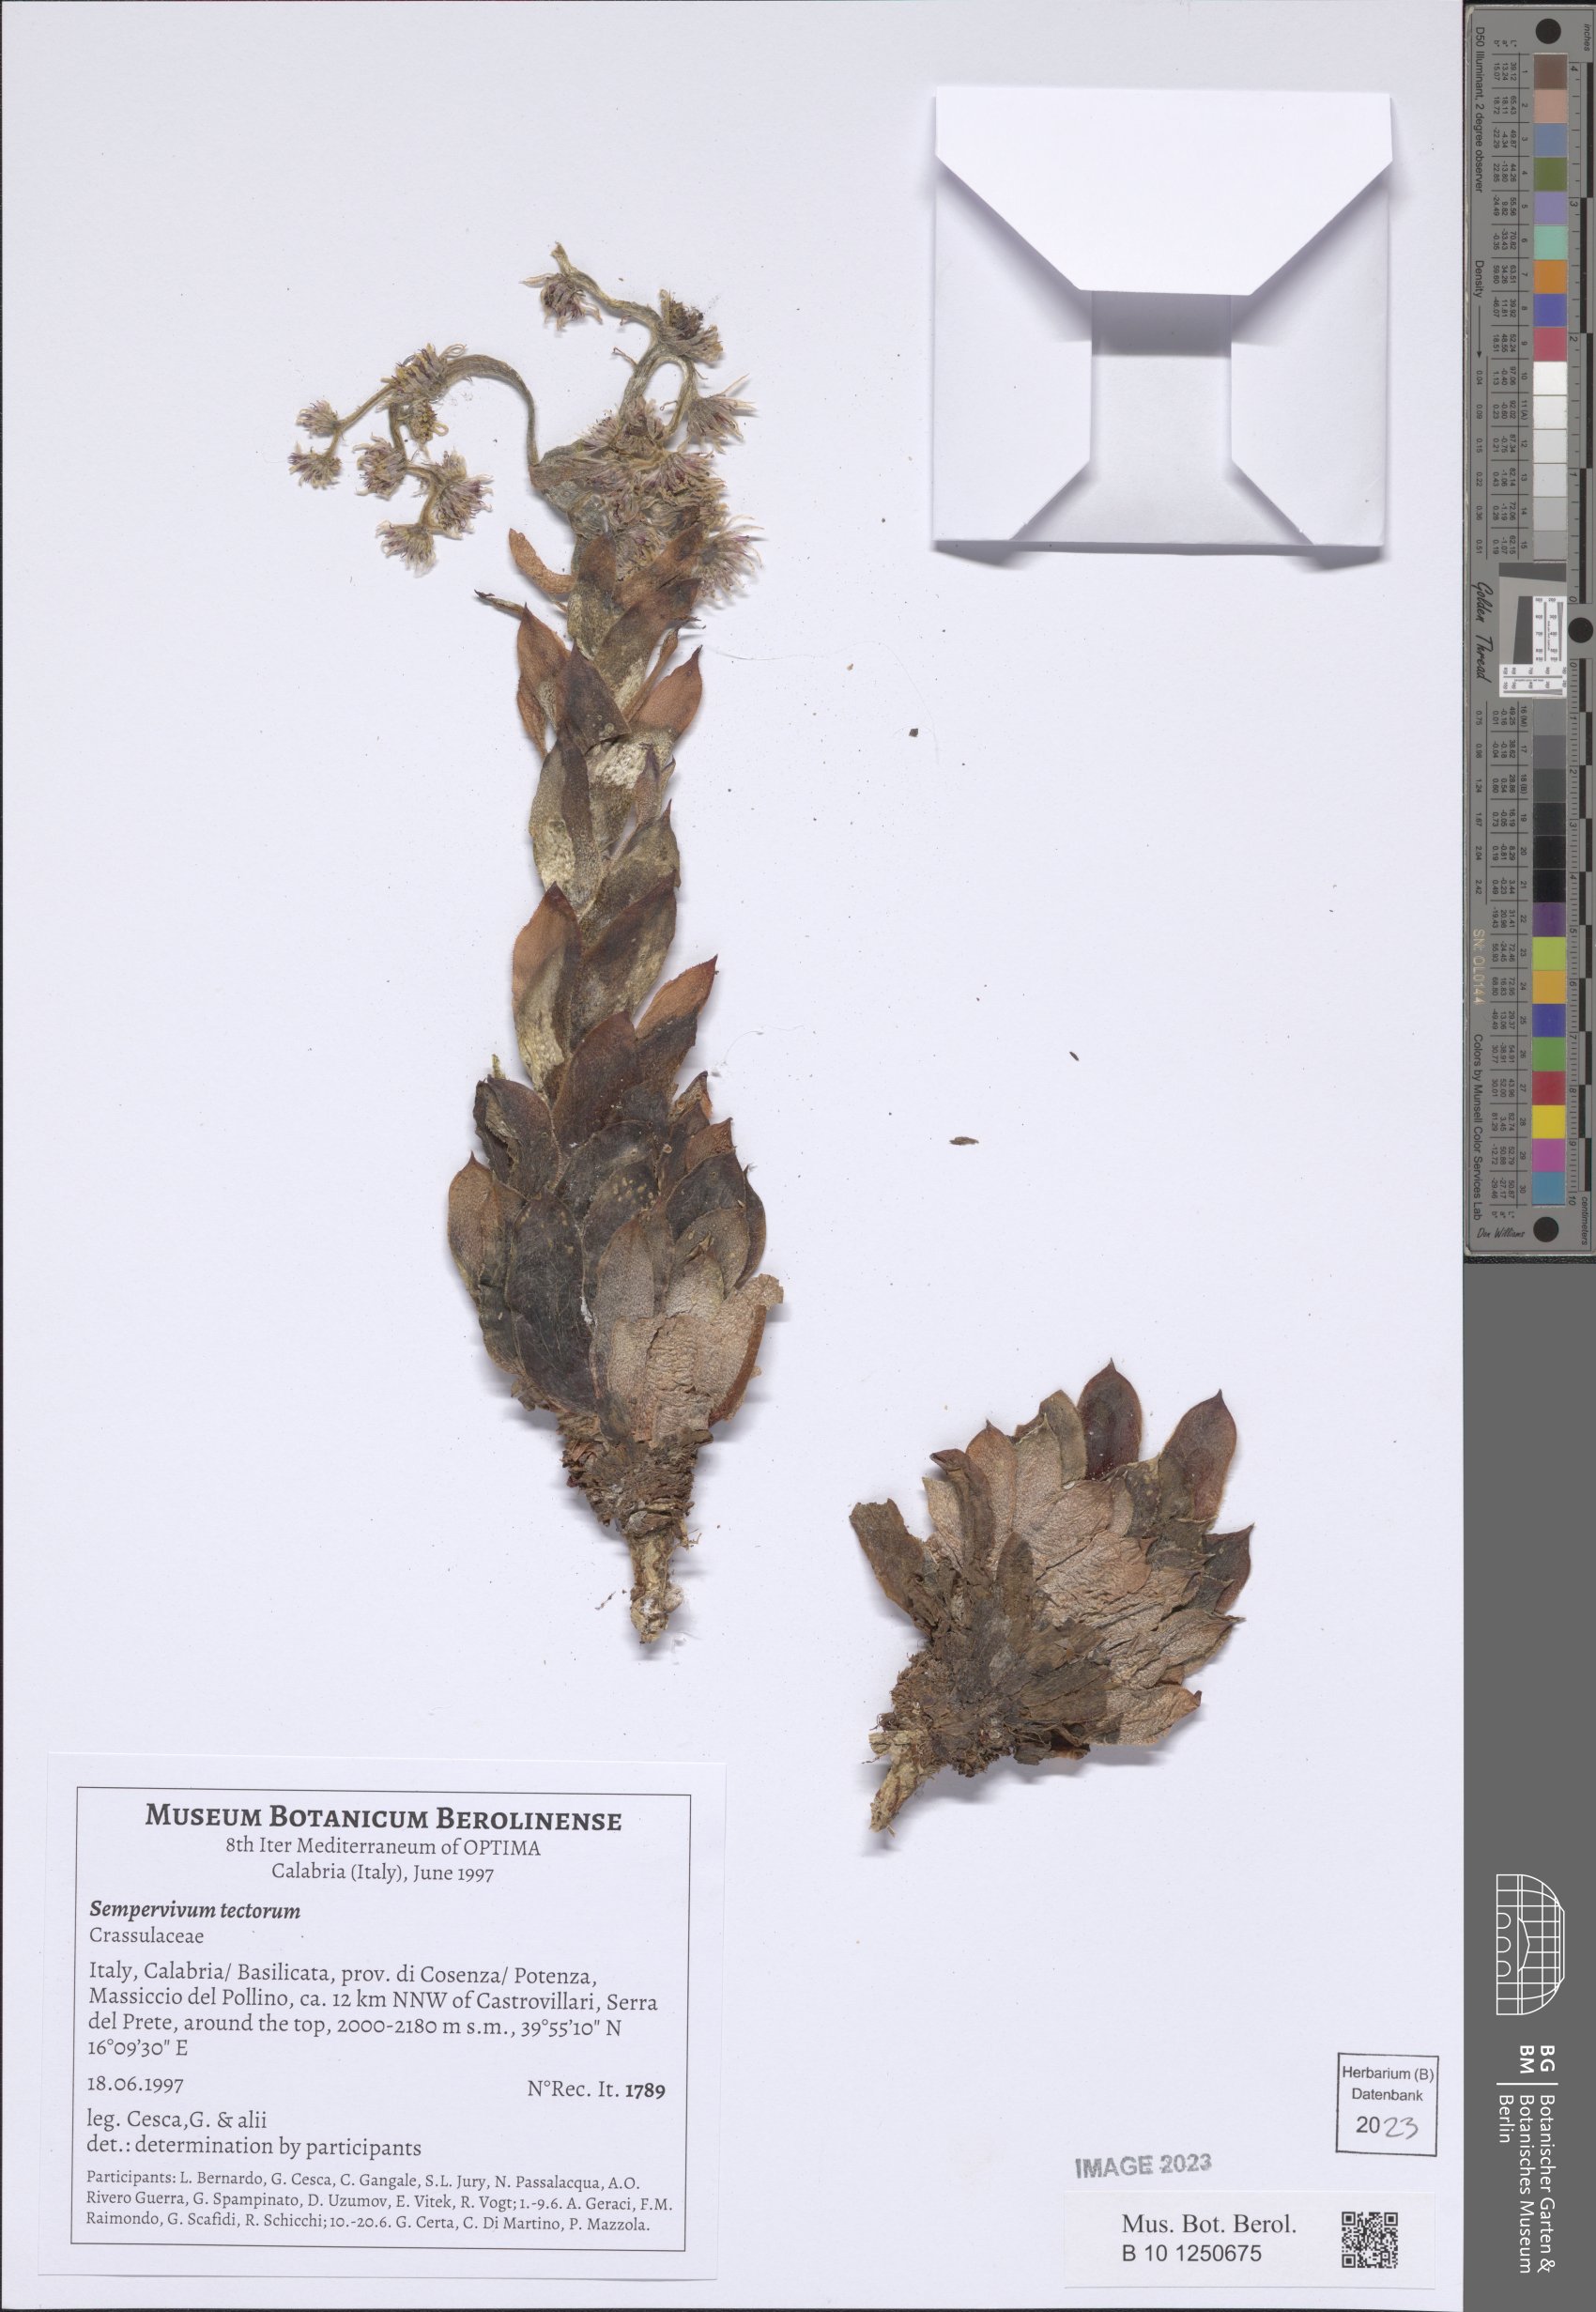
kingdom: Plantae
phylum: Tracheophyta
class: Magnoliopsida
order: Saxifragales
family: Crassulaceae
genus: Sempervivum
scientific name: Sempervivum tectorum
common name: House-leek
